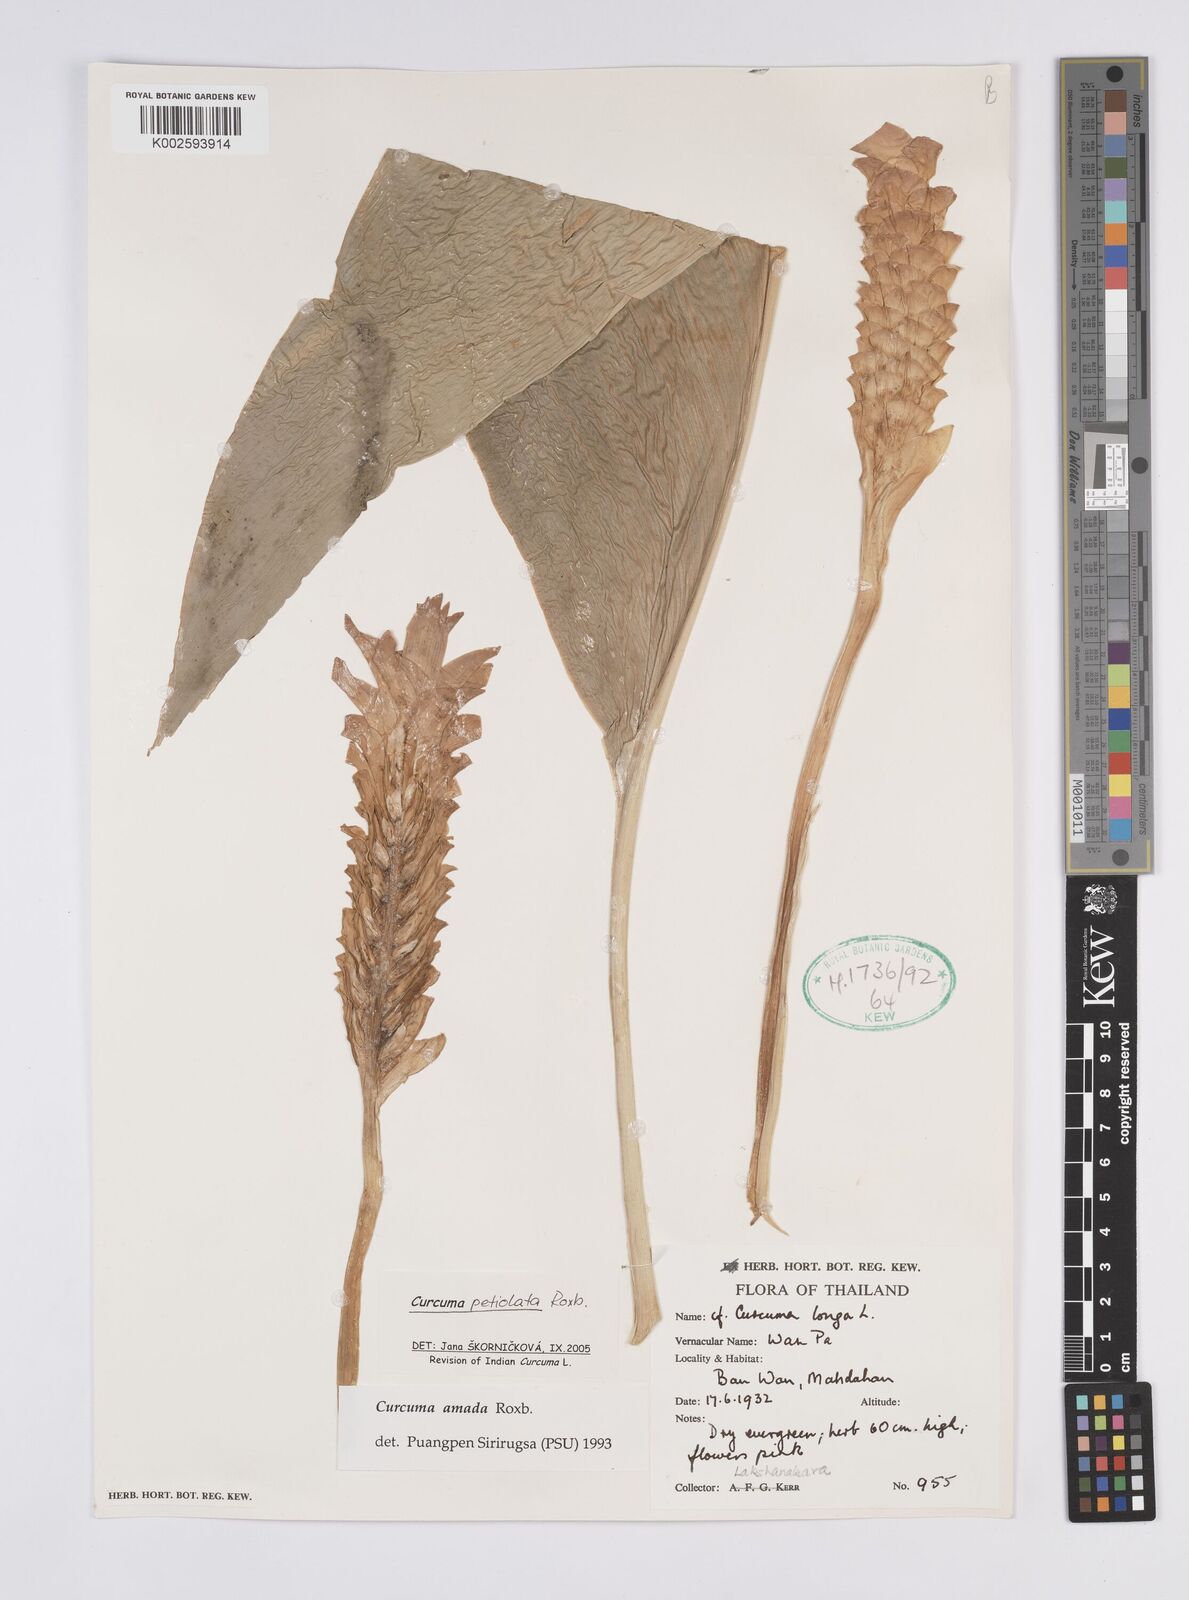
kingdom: Plantae
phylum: Tracheophyta
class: Liliopsida
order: Zingiberales
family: Zingiberaceae
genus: Curcuma
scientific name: Curcuma petiolata
